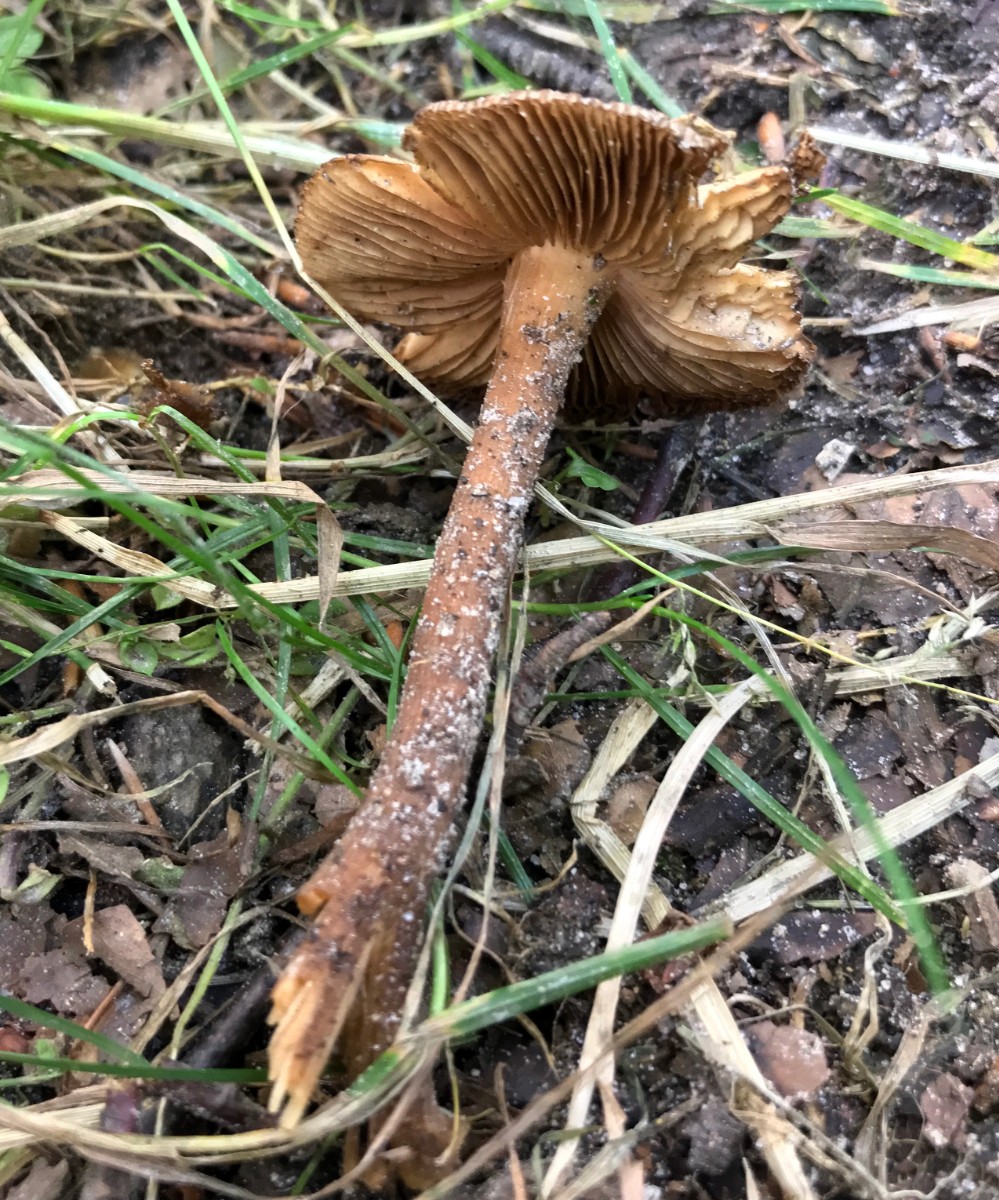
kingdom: Fungi
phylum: Basidiomycota
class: Agaricomycetes
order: Agaricales
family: Inocybaceae
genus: Inocybe
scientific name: Inocybe
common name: trævlhat
